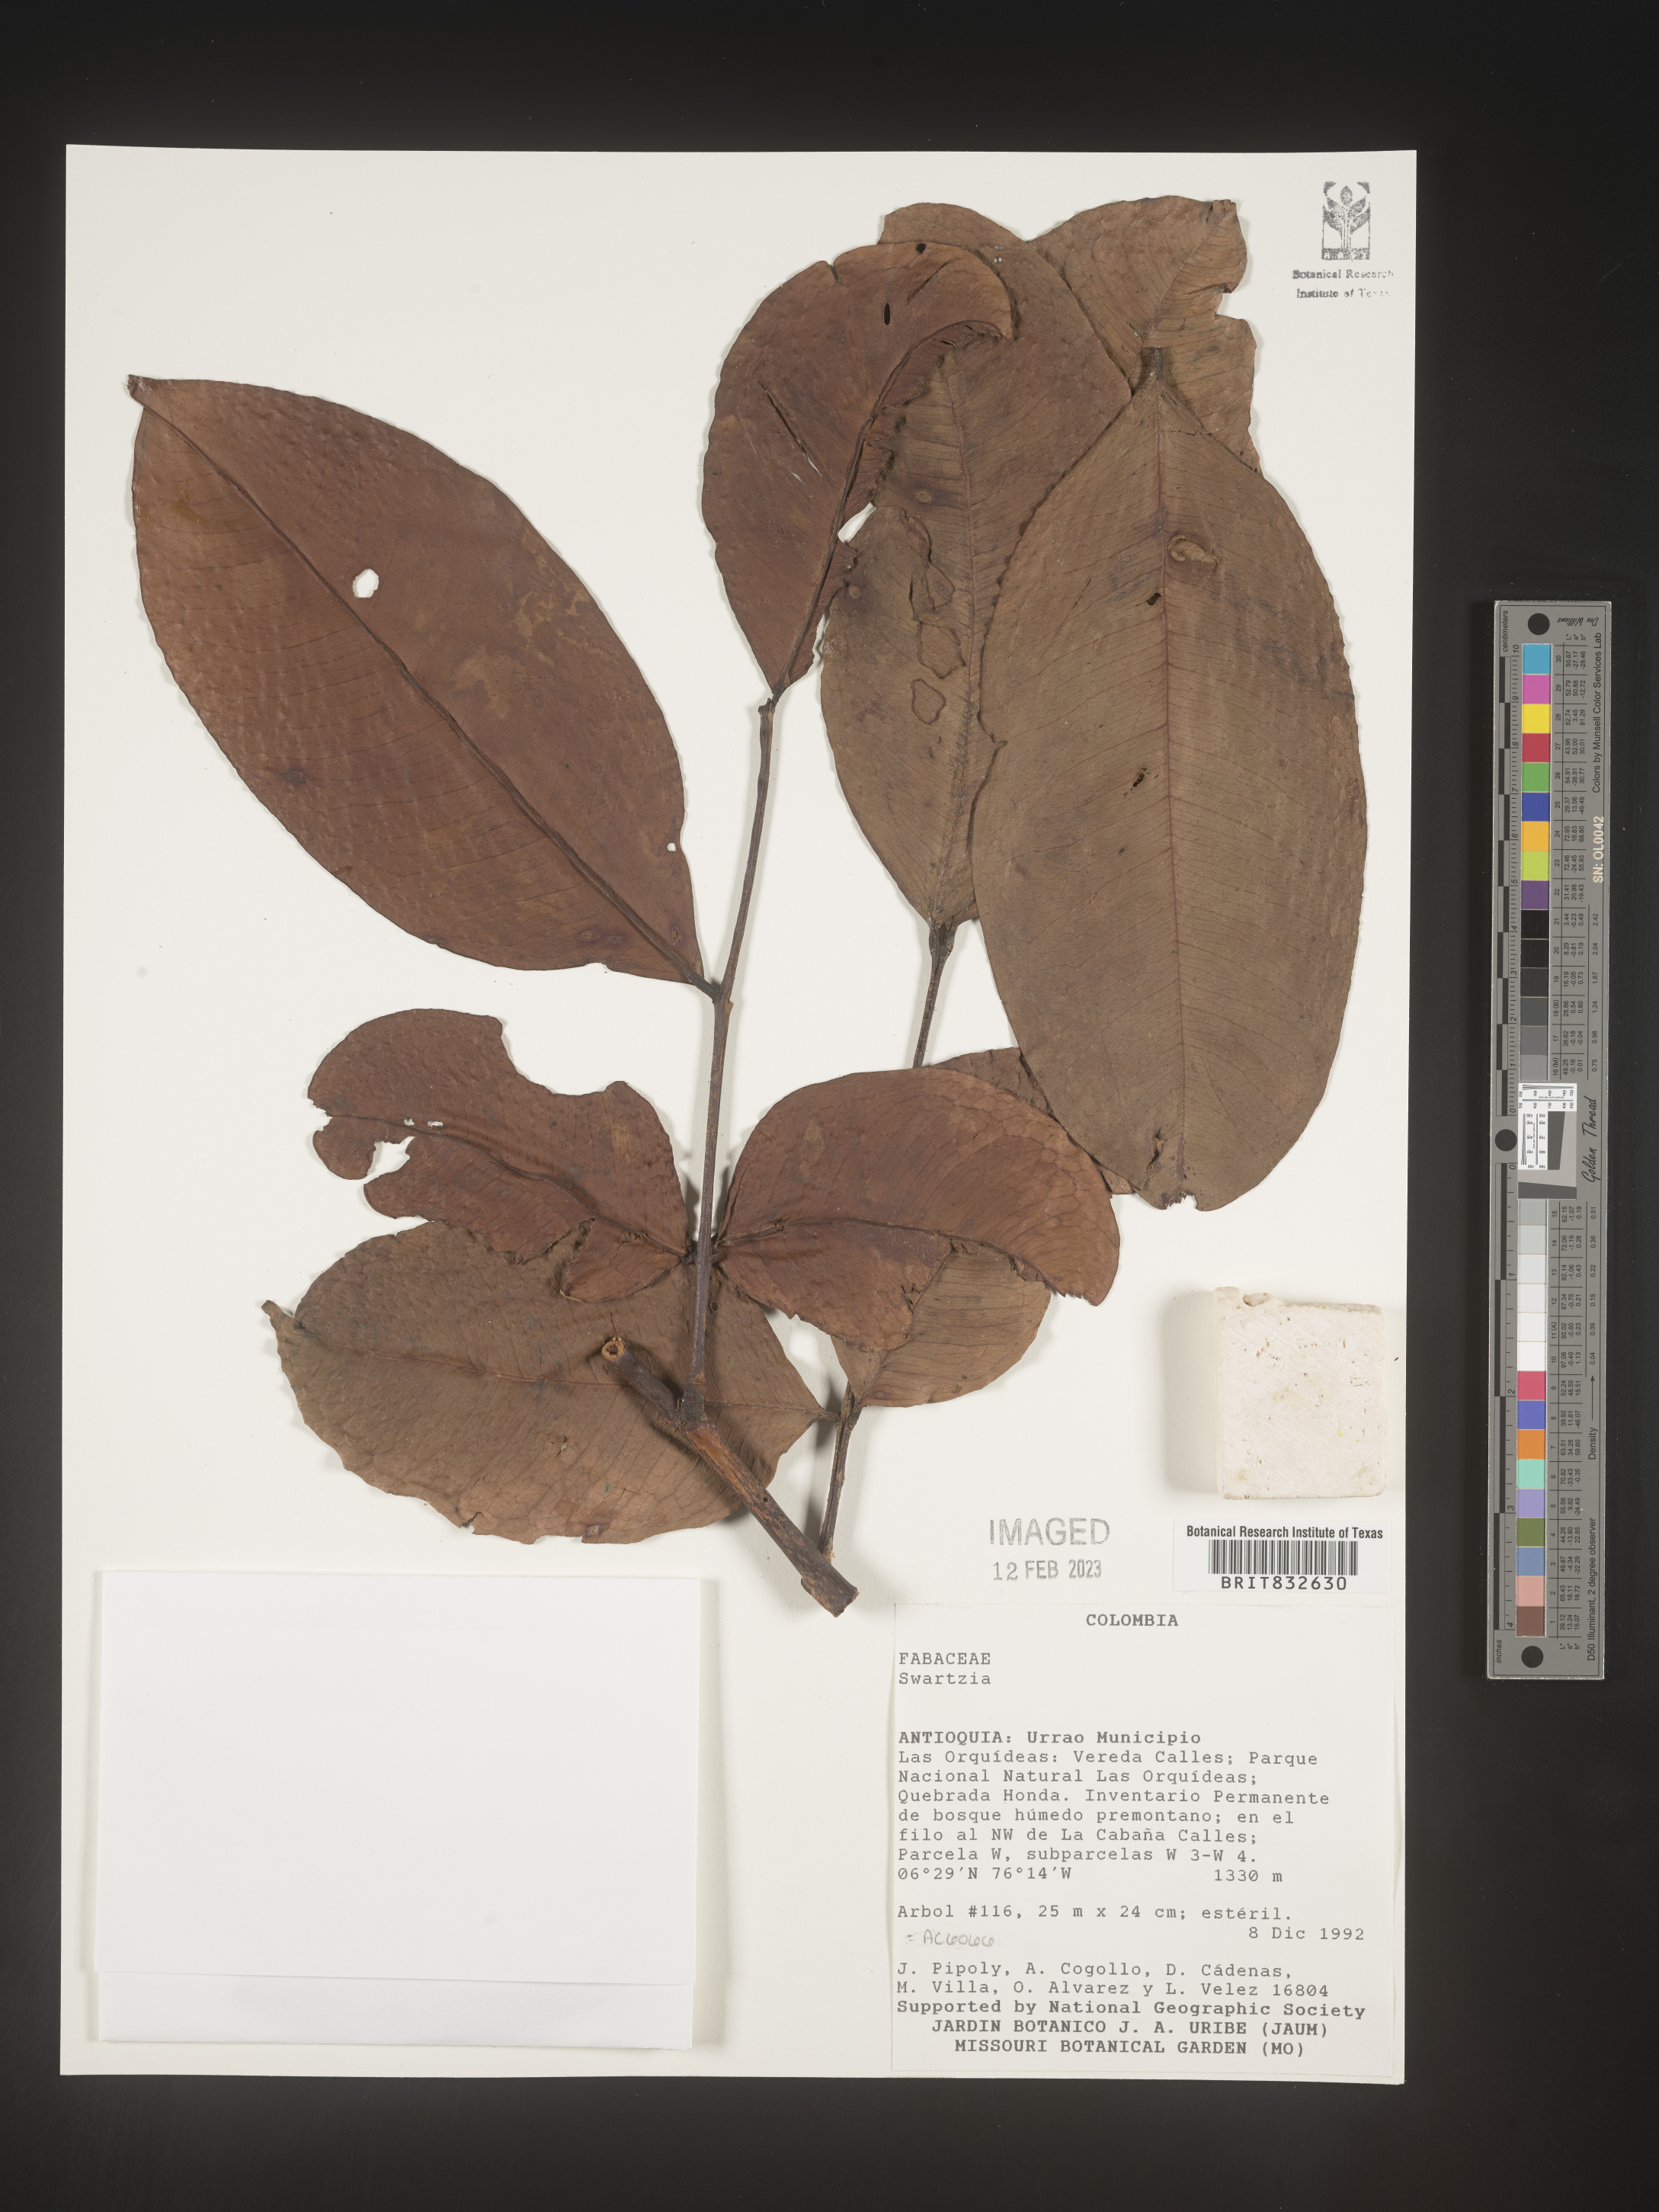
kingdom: Plantae
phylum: Tracheophyta
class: Magnoliopsida
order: Fabales
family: Fabaceae
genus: Swartzia
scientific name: Swartzia
